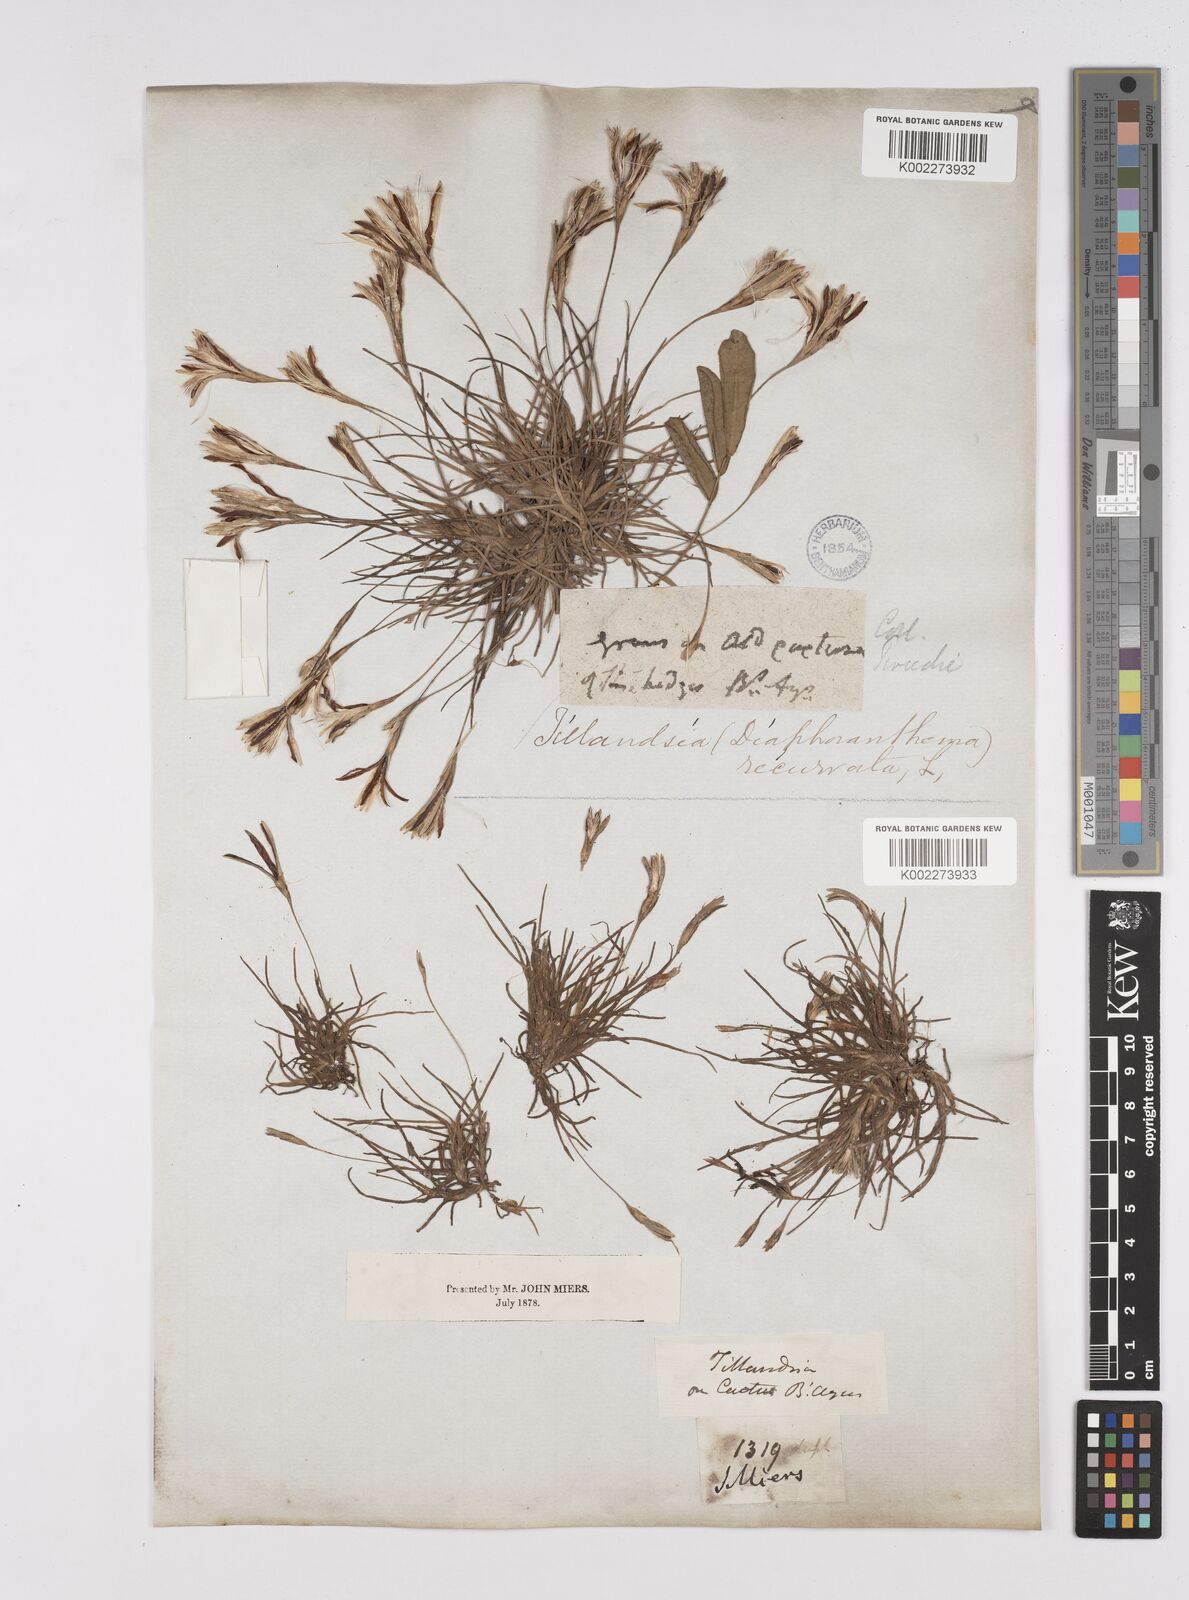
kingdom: Plantae
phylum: Tracheophyta
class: Liliopsida
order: Poales
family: Bromeliaceae
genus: Tillandsia
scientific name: Tillandsia recurvata
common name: Small ballmoss
